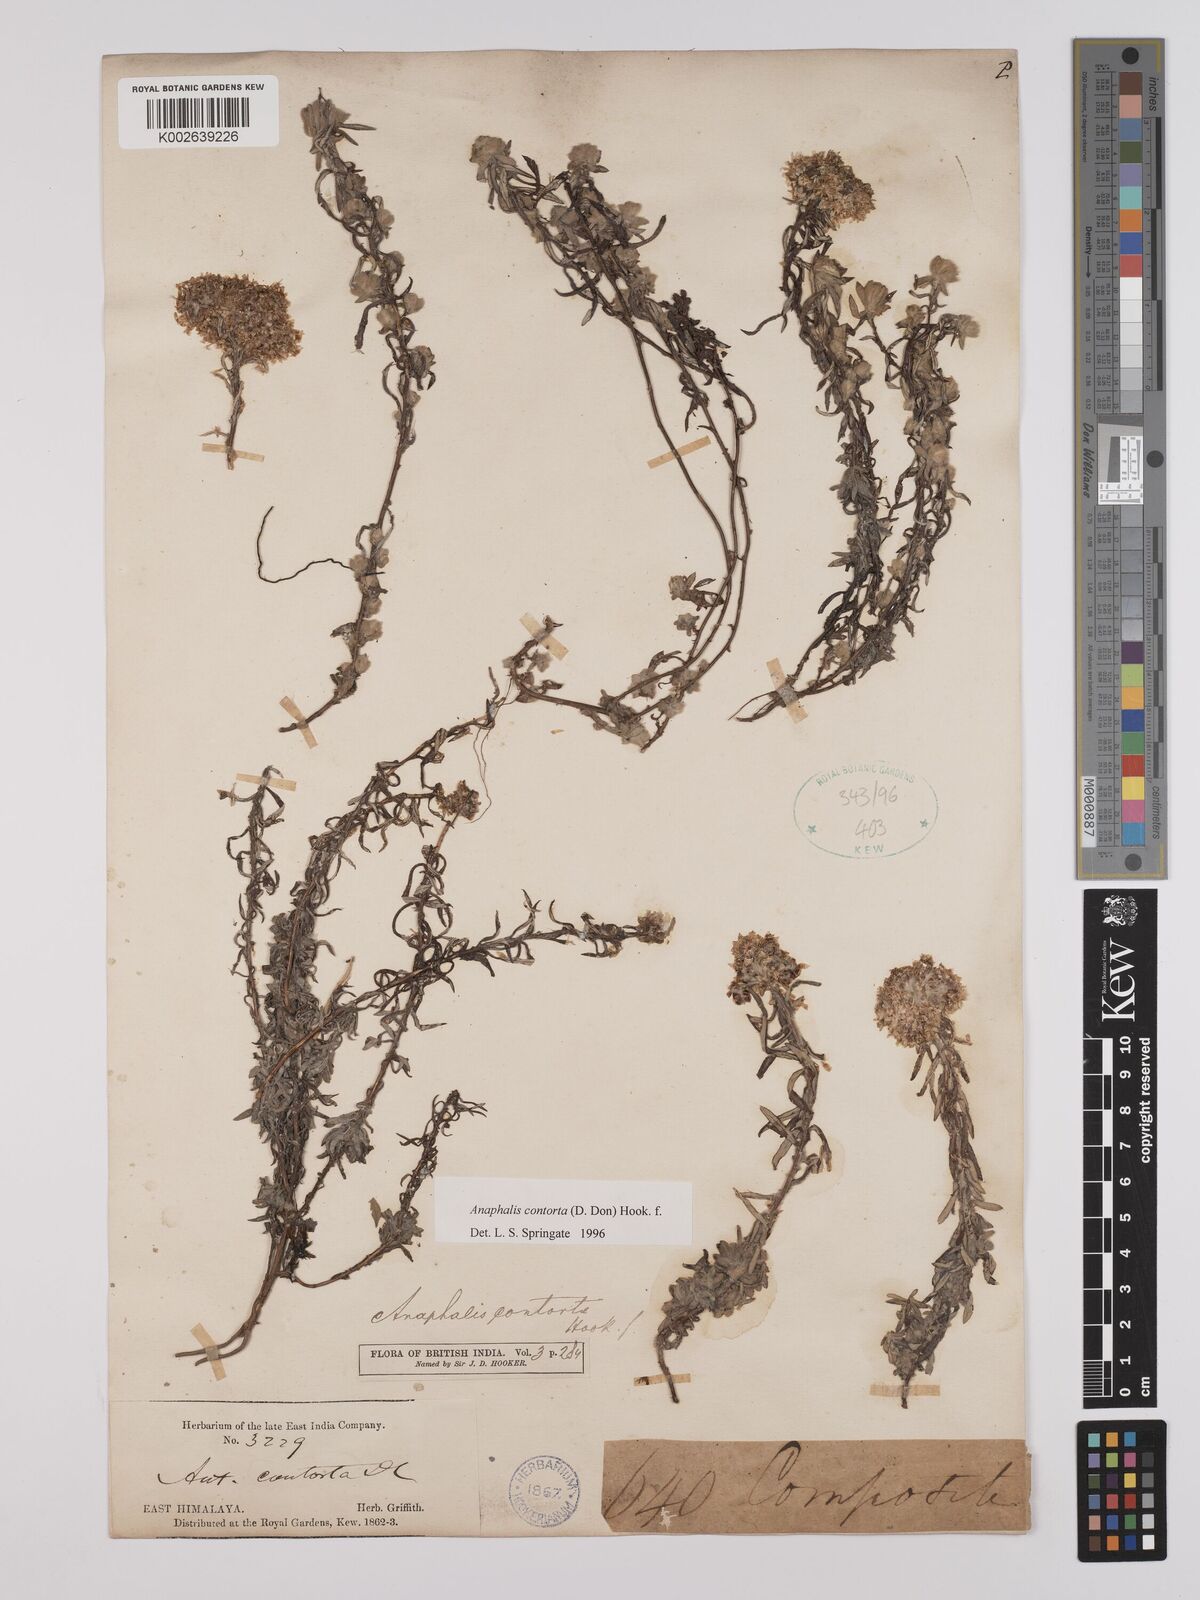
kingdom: Plantae
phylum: Tracheophyta
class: Magnoliopsida
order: Asterales
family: Asteraceae
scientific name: Asteraceae
